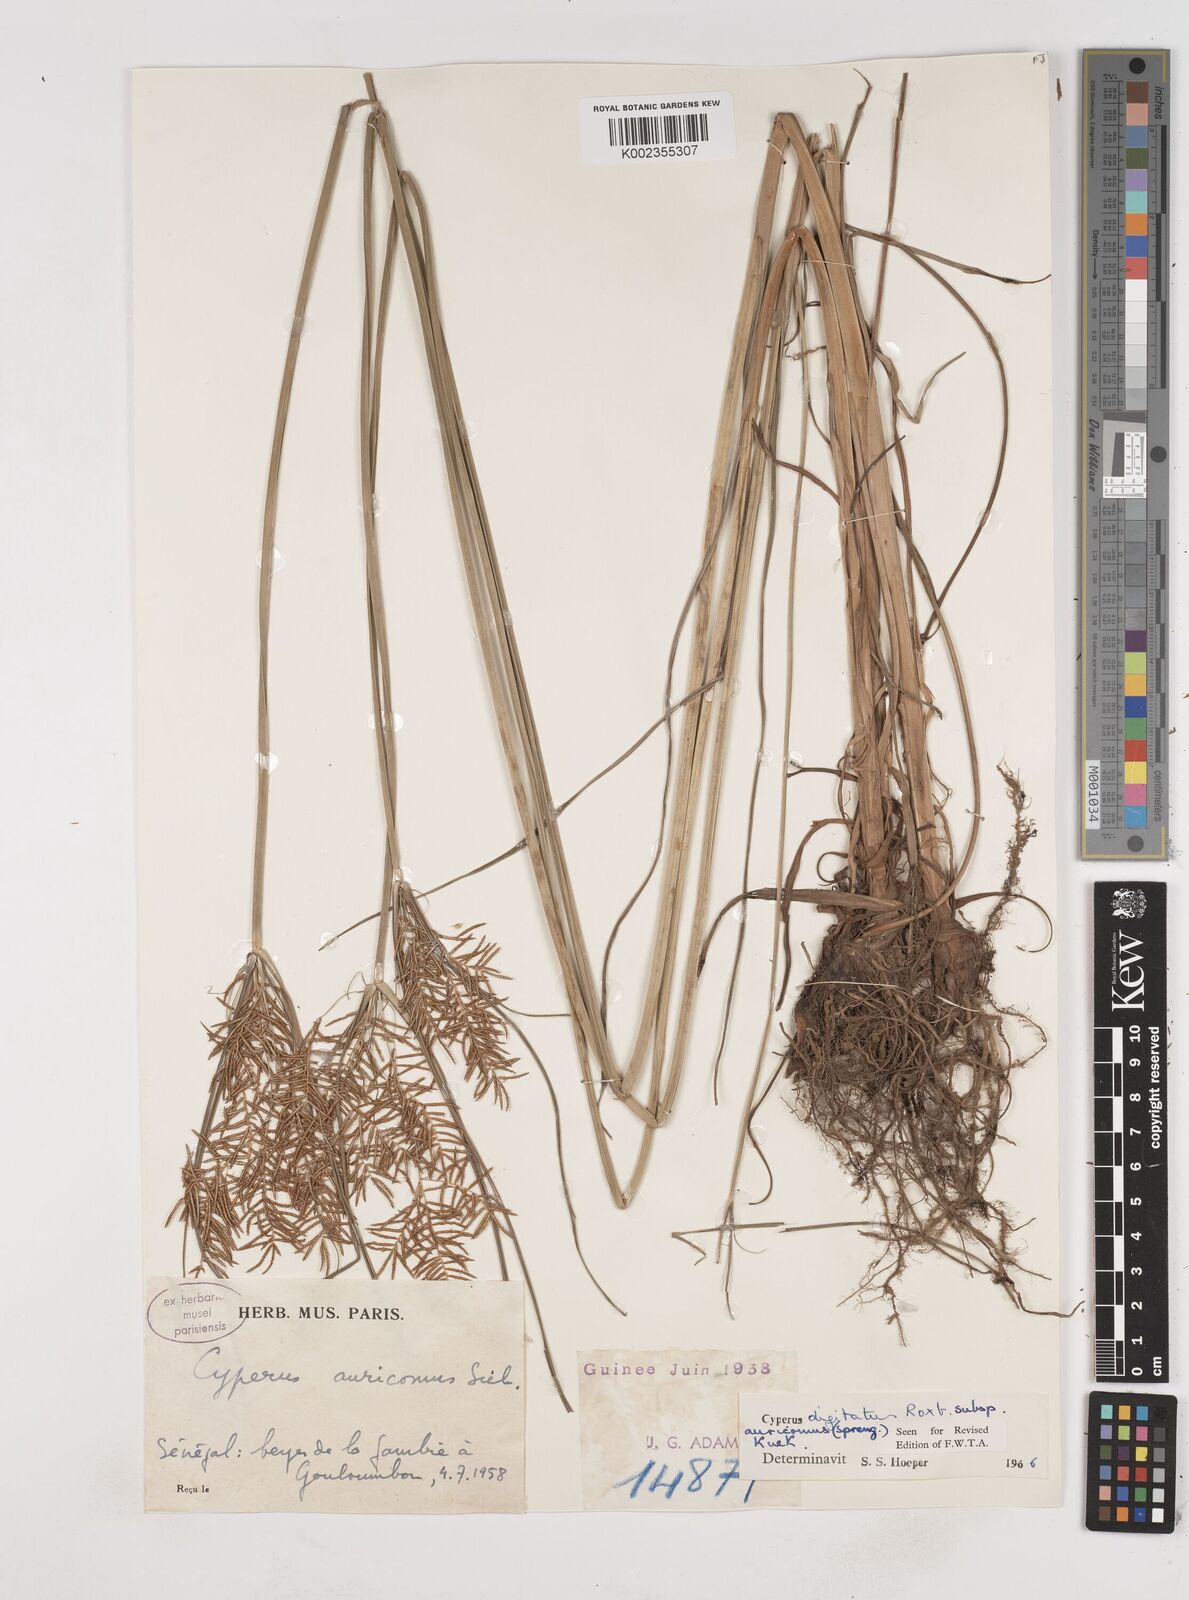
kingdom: Plantae
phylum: Tracheophyta
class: Liliopsida
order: Poales
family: Cyperaceae
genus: Cyperus
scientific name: Cyperus digitatus
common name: Finger flatsedge
